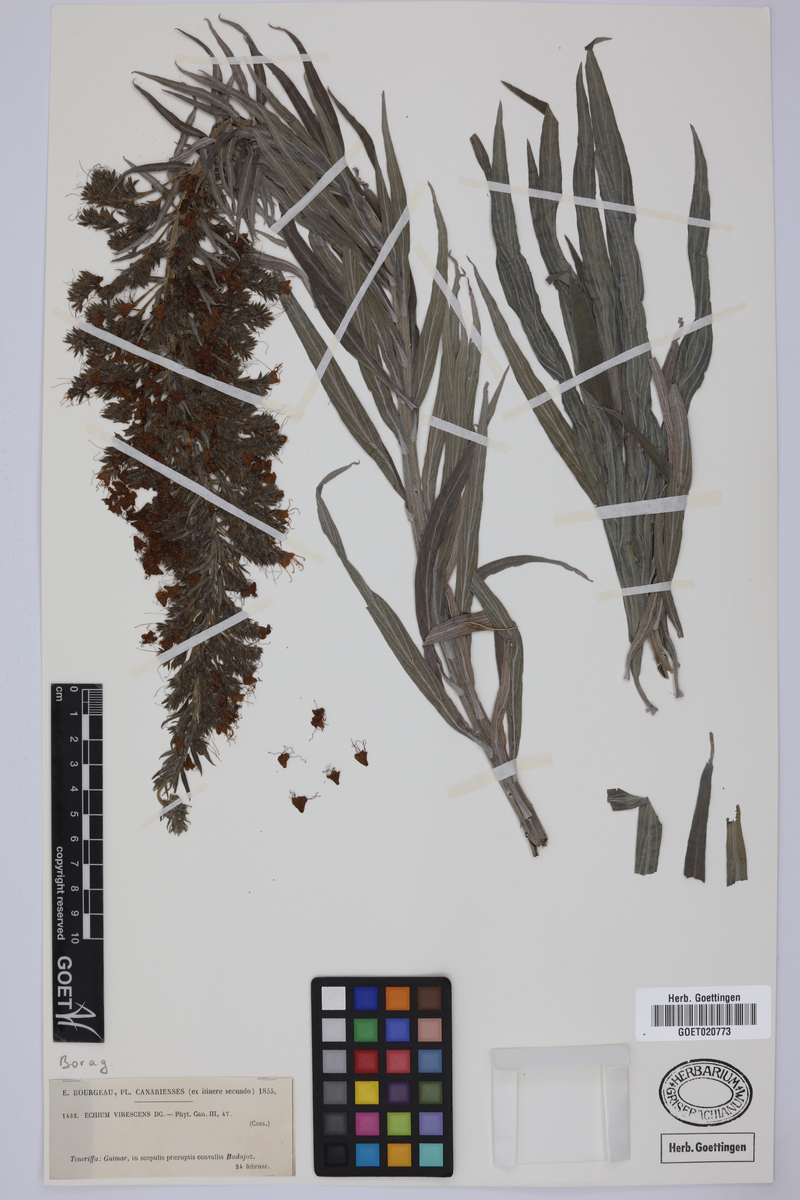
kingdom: Plantae
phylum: Tracheophyta
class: Magnoliopsida
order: Boraginales
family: Boraginaceae
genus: Echium
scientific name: Echium virescens
